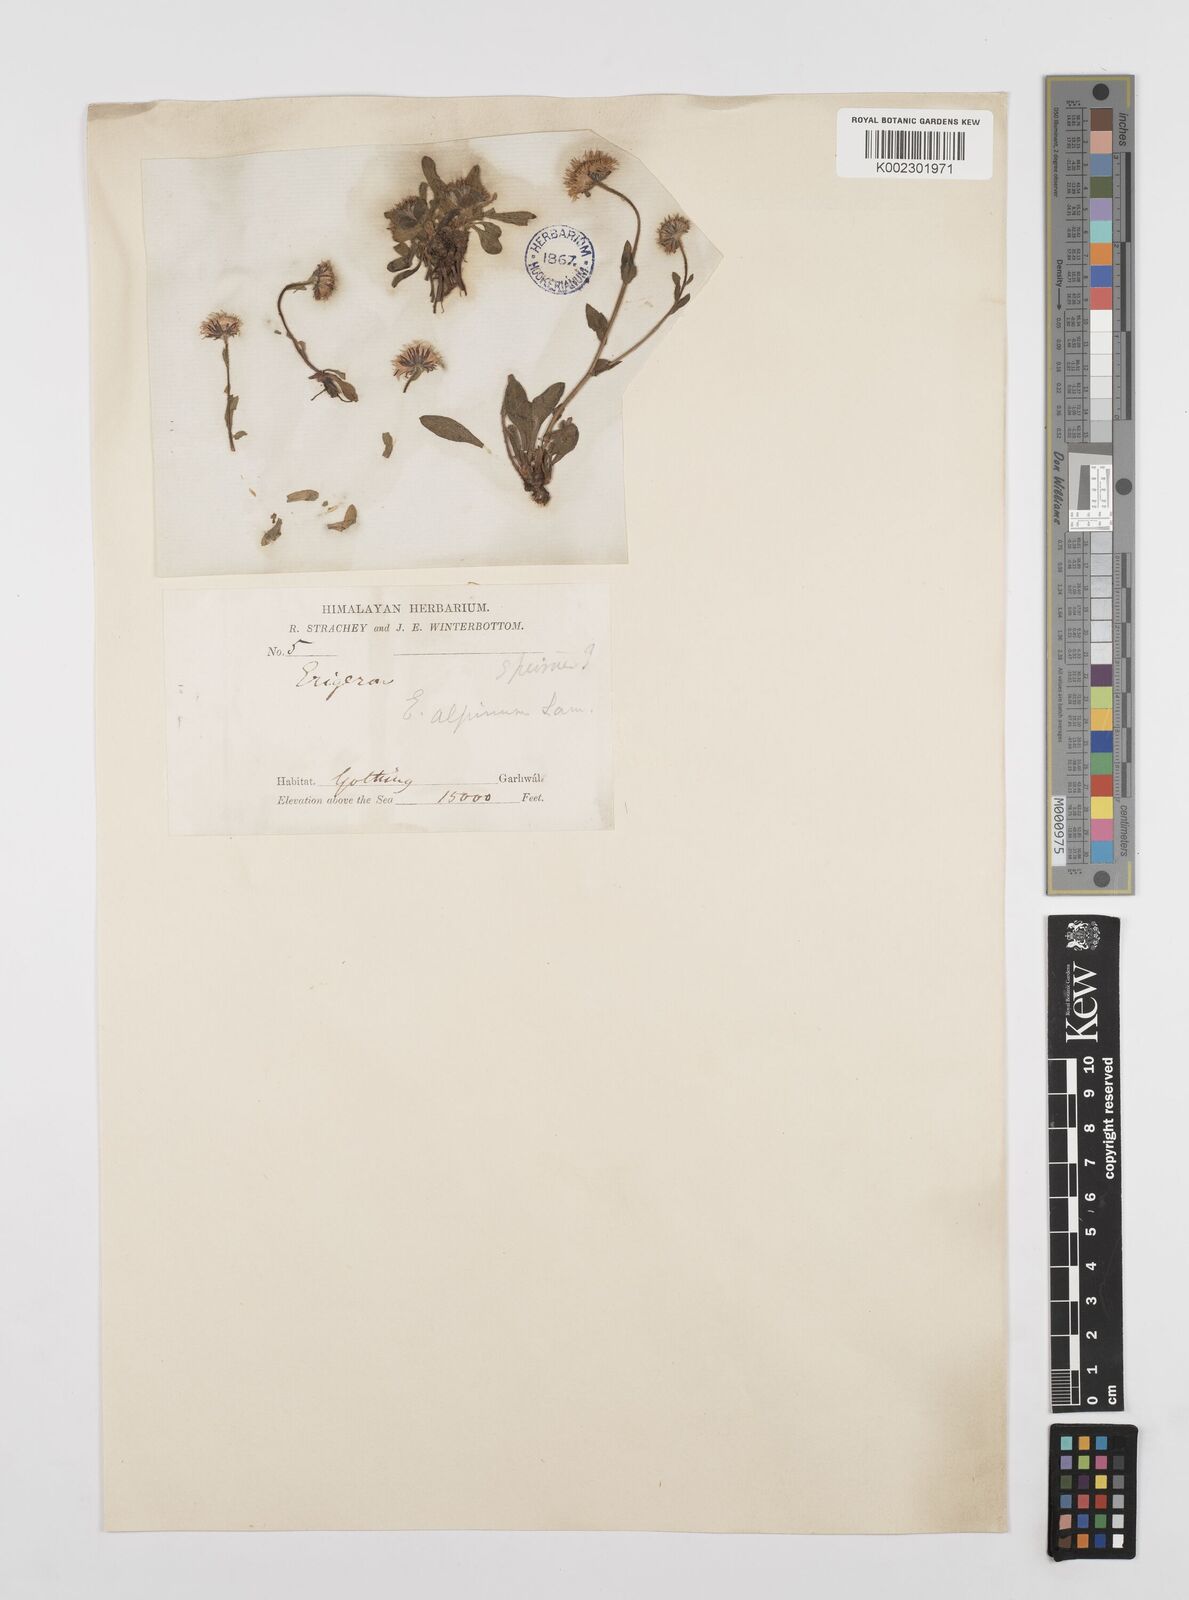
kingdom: Plantae
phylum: Tracheophyta
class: Magnoliopsida
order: Asterales
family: Asteraceae
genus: Erigeron
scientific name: Erigeron alpinus
